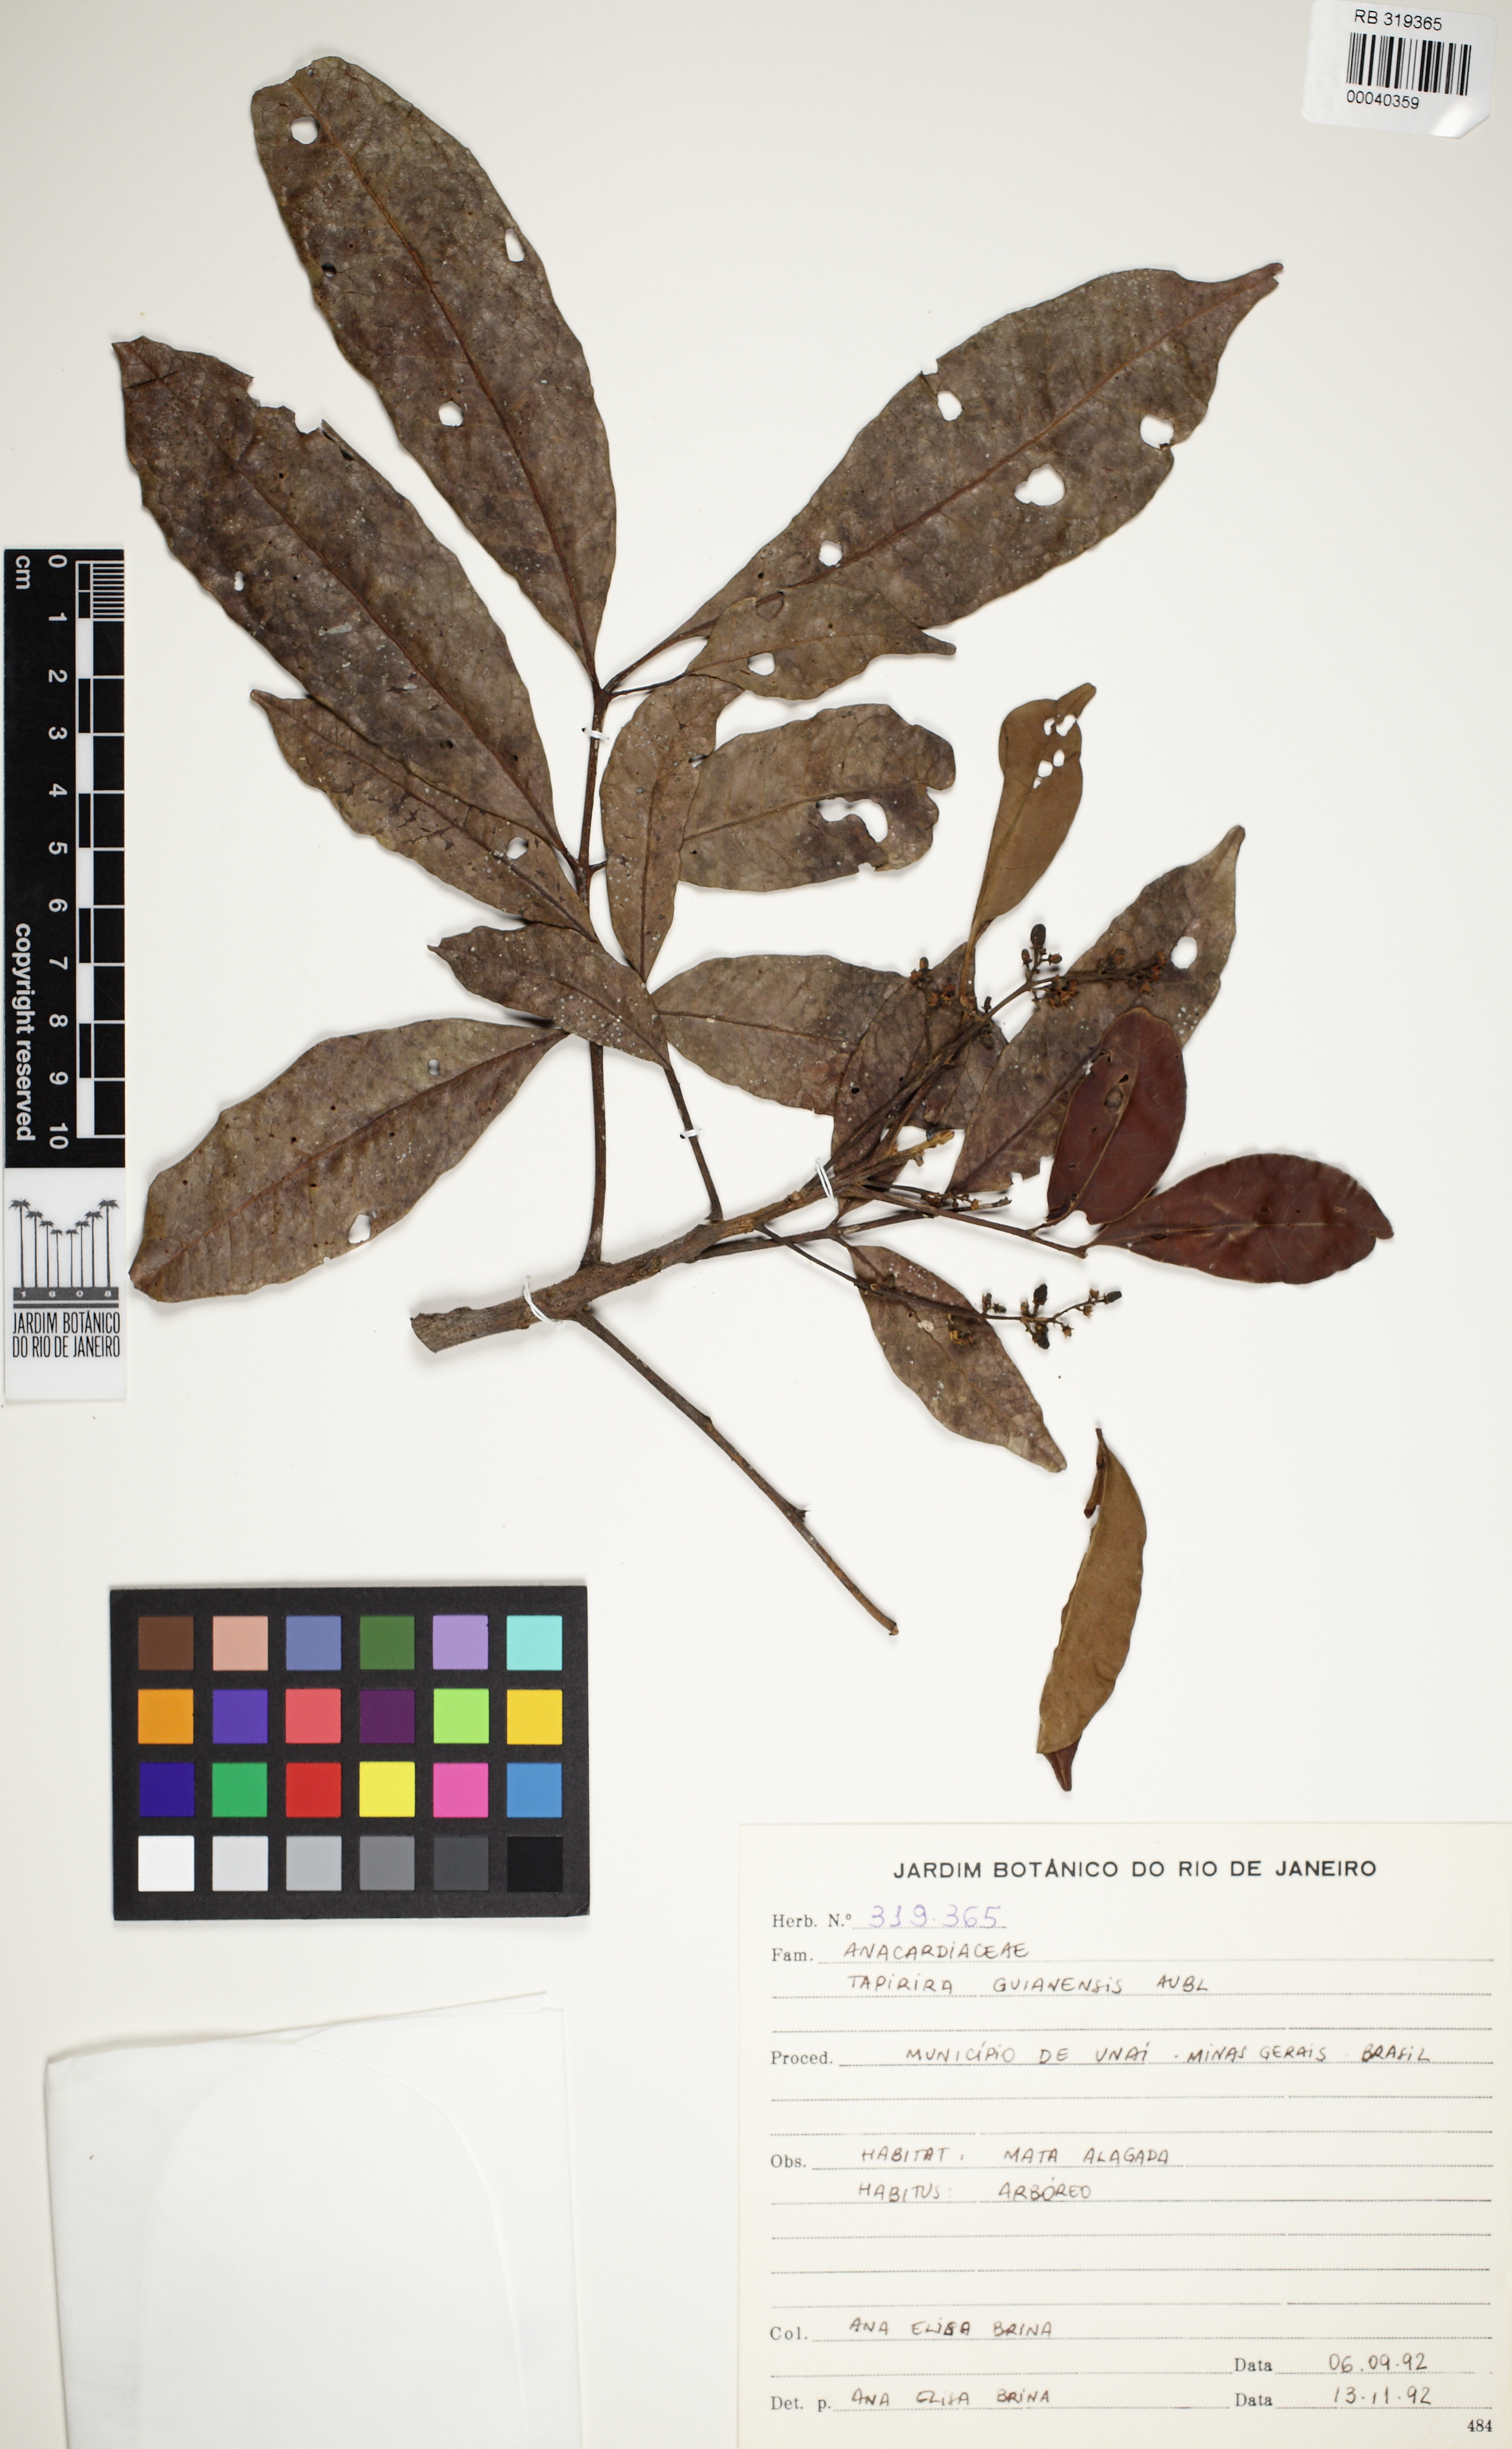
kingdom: Plantae
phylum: Tracheophyta
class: Magnoliopsida
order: Sapindales
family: Anacardiaceae
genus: Tapirira
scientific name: Tapirira guianensis
